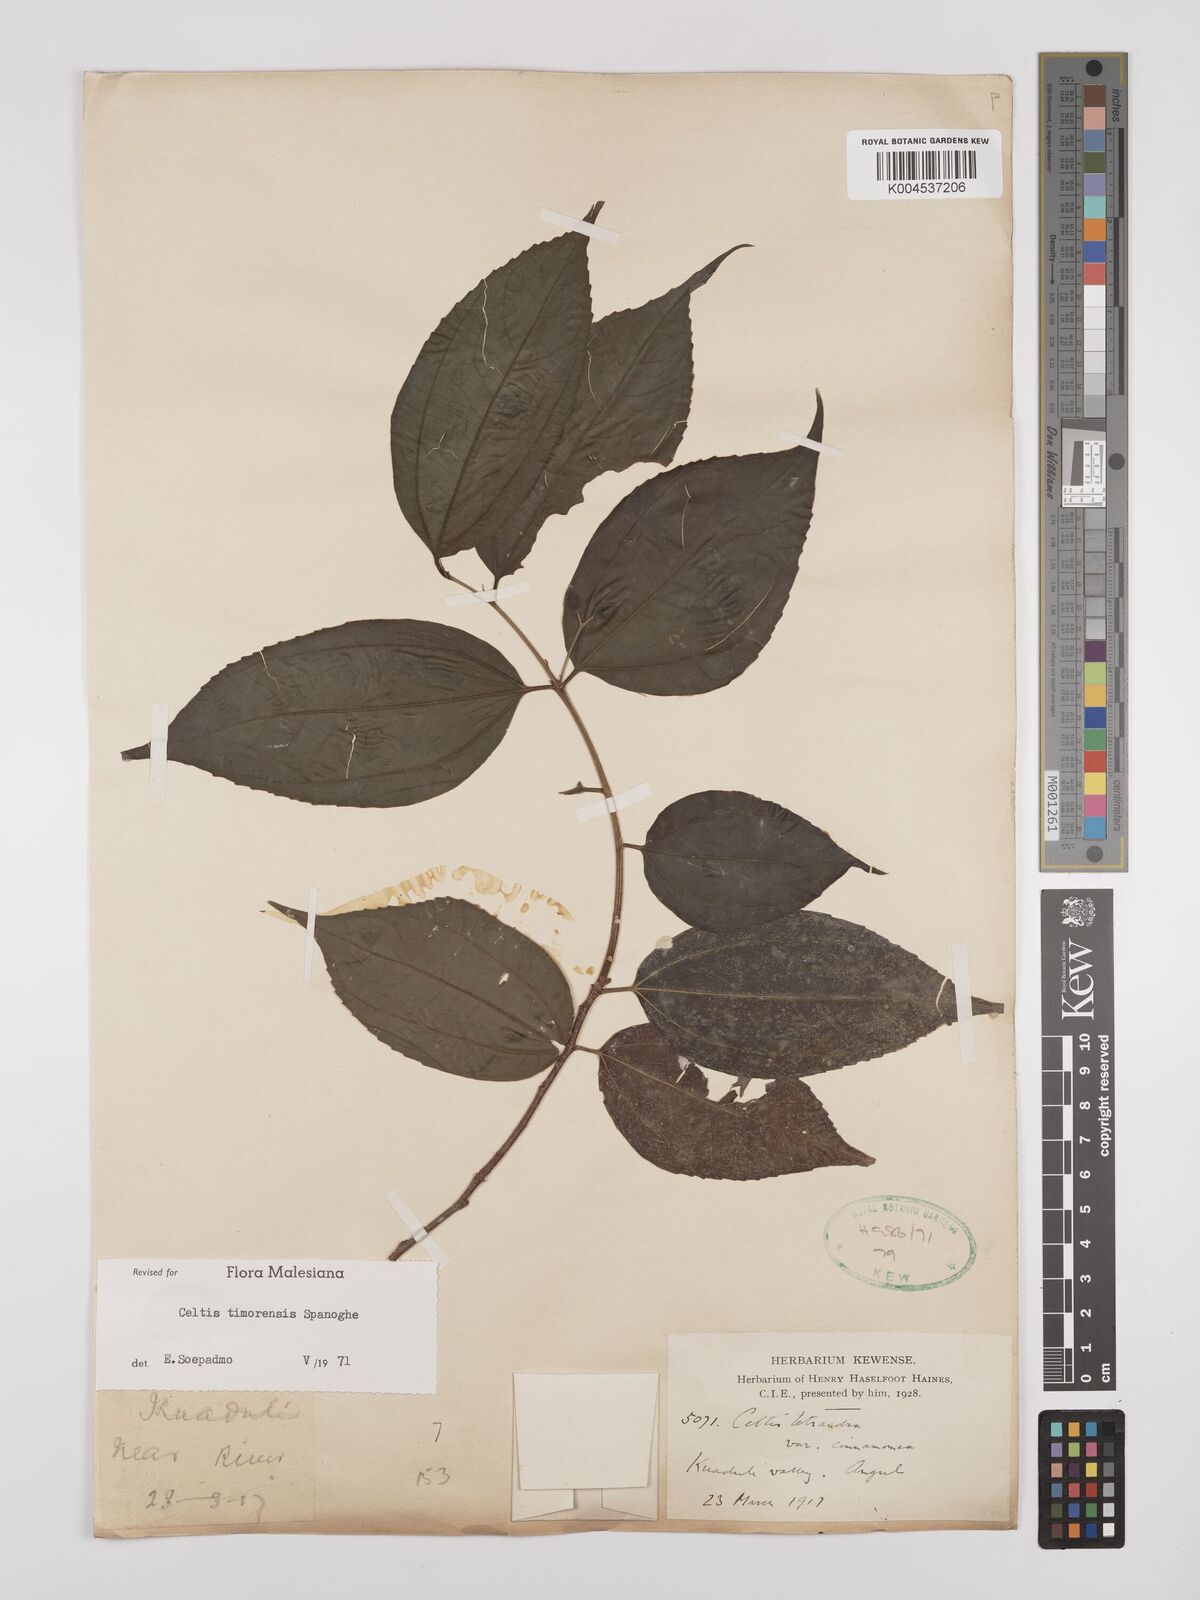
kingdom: Plantae
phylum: Tracheophyta
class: Magnoliopsida
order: Rosales
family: Cannabaceae
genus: Celtis
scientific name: Celtis timorensis
